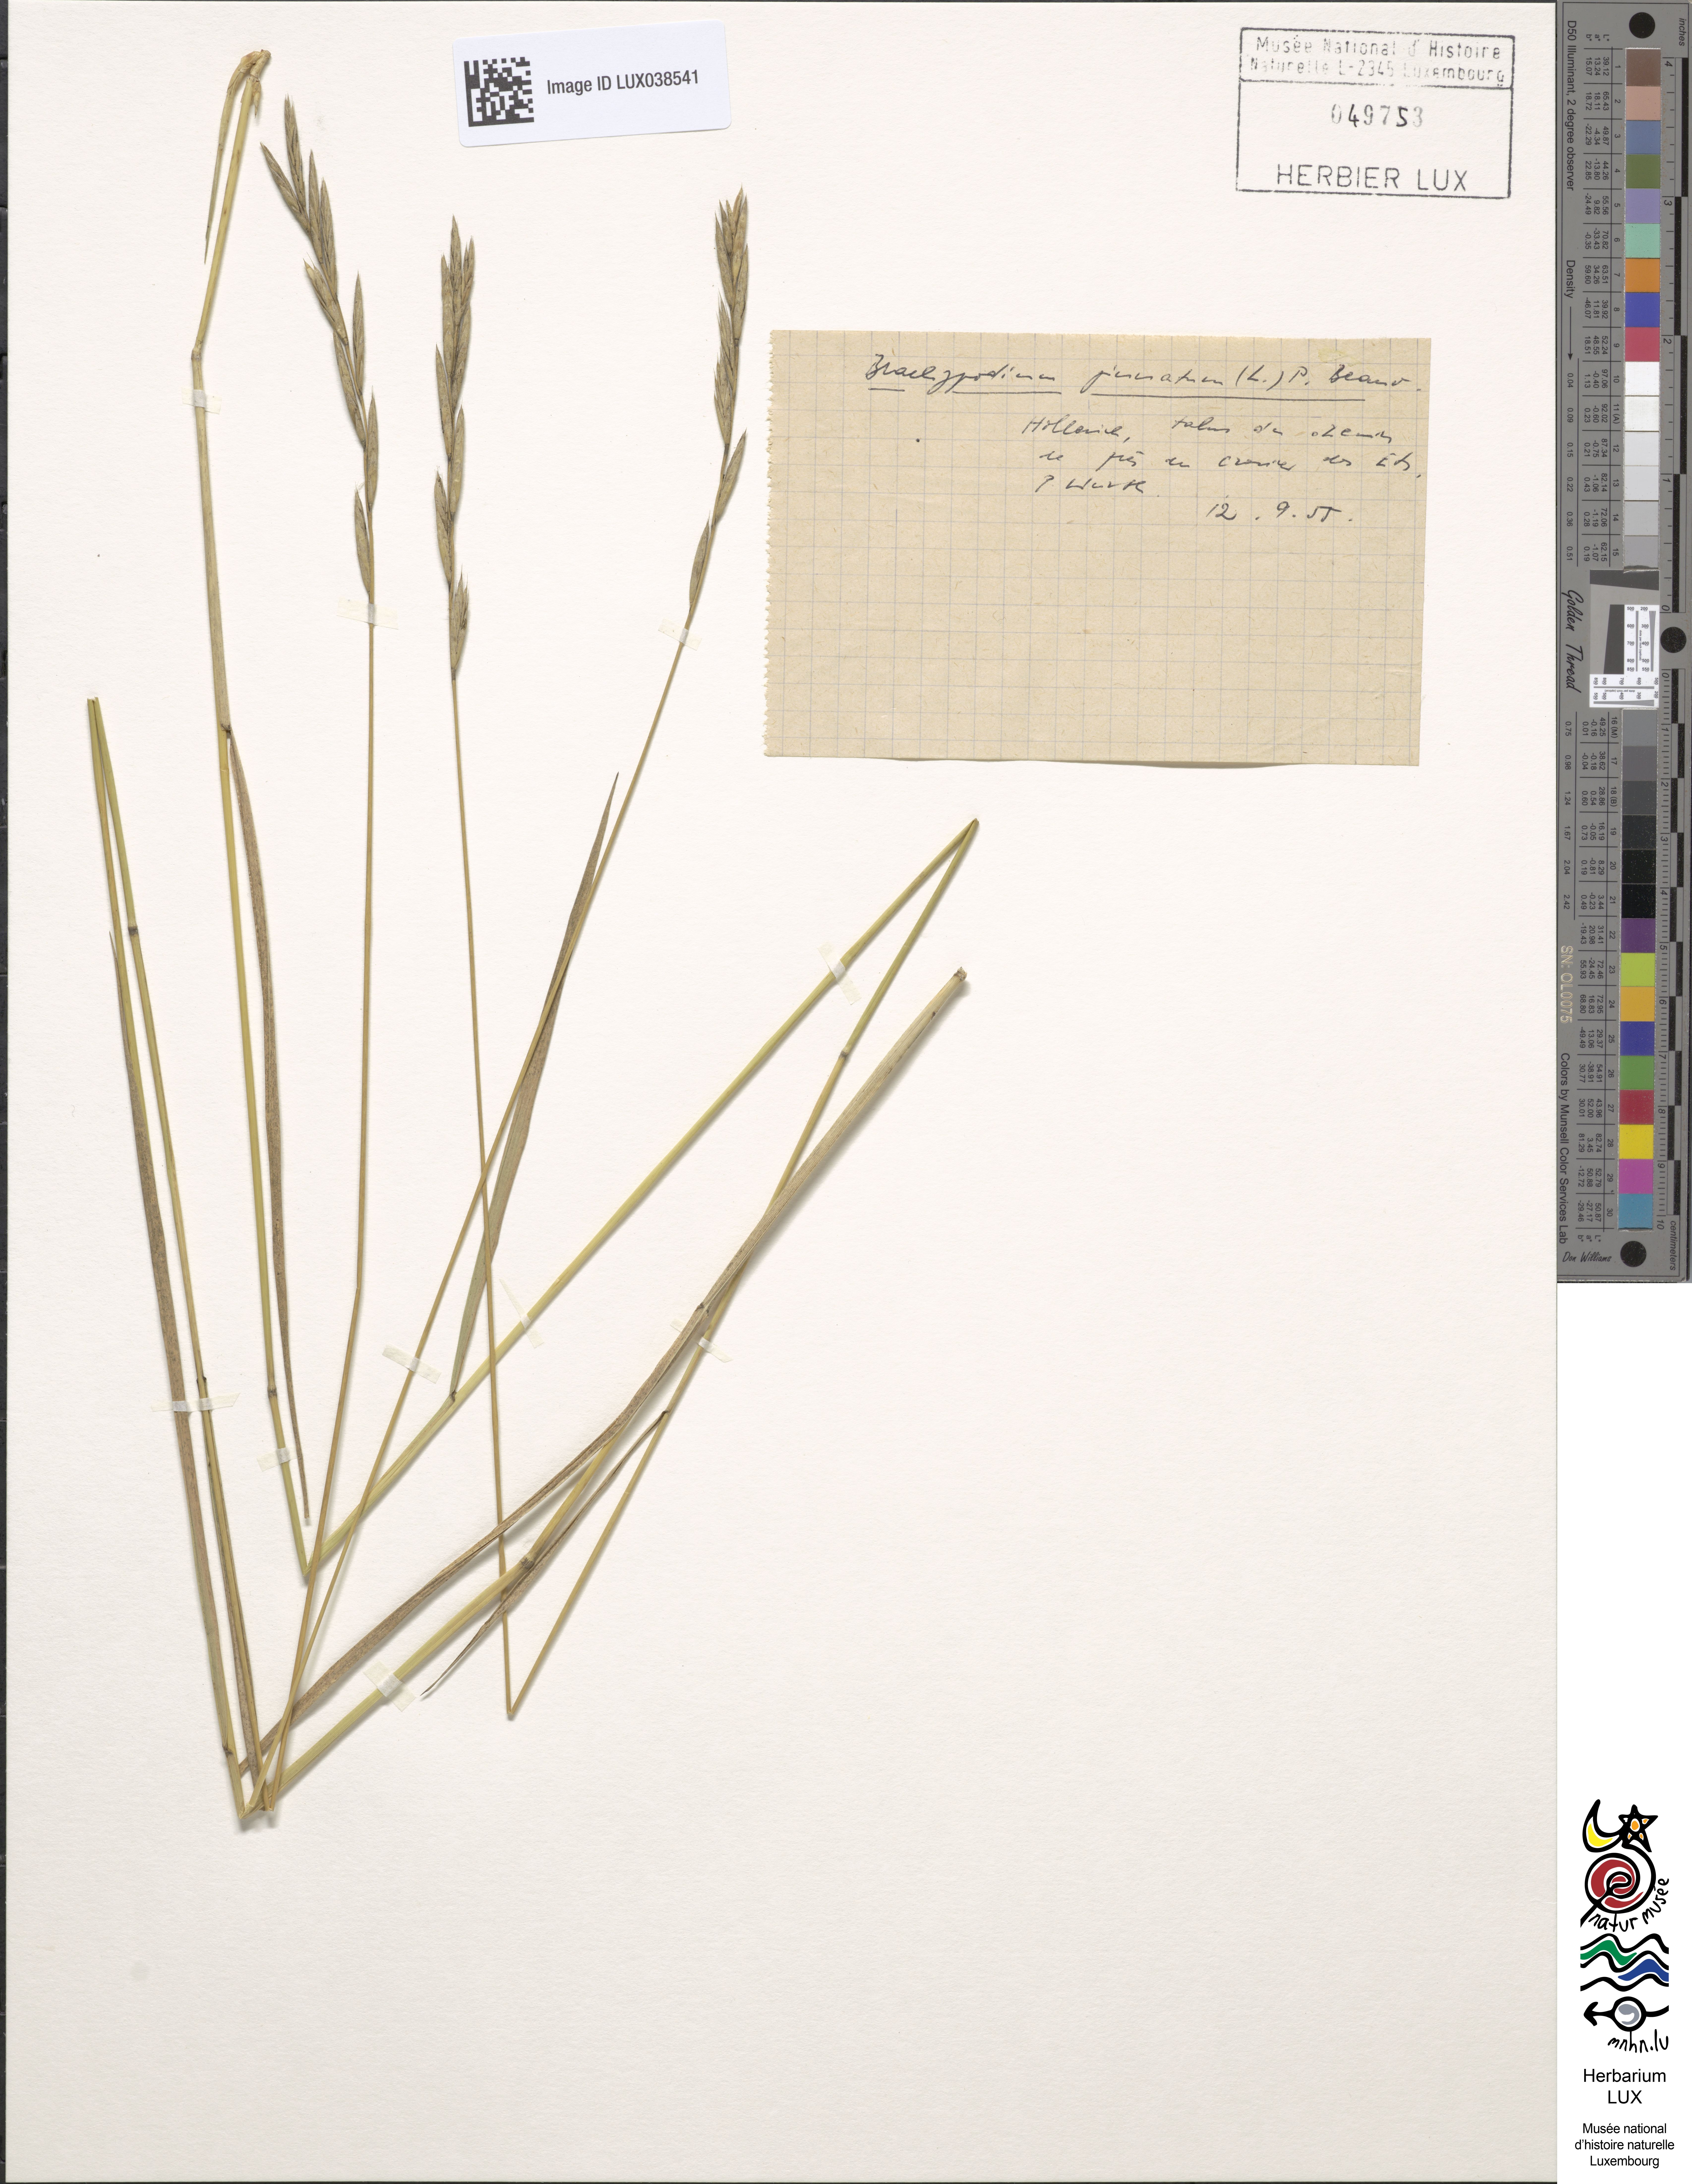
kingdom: Plantae
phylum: Tracheophyta
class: Liliopsida
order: Poales
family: Poaceae
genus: Brachypodium
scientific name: Brachypodium pinnatum
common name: Tor grass
